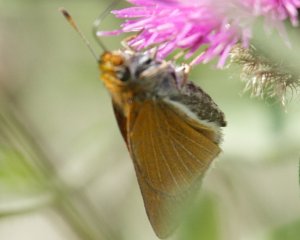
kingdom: Animalia
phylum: Arthropoda
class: Insecta
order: Lepidoptera
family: Hesperiidae
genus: Euphyes
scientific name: Euphyes bimacula
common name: Two-spotted Skipper
